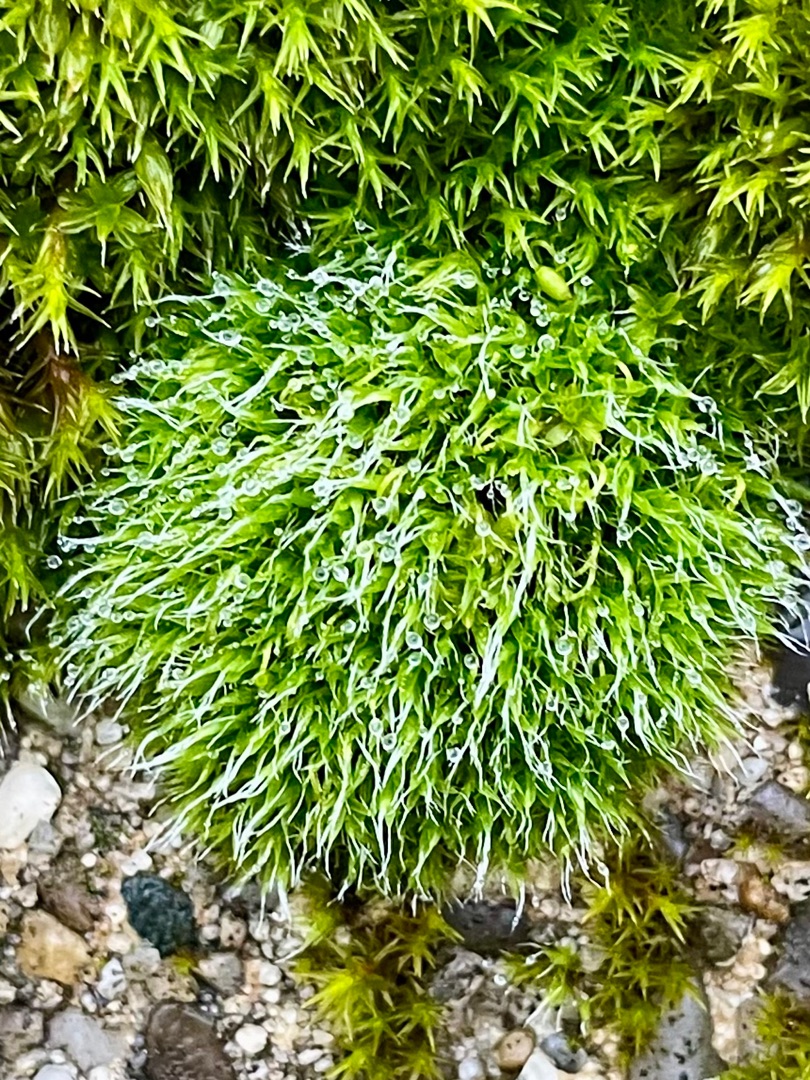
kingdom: Plantae
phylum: Bryophyta
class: Bryopsida
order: Grimmiales
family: Grimmiaceae
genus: Grimmia
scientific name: Grimmia pulvinata
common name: Pude-gråmos
